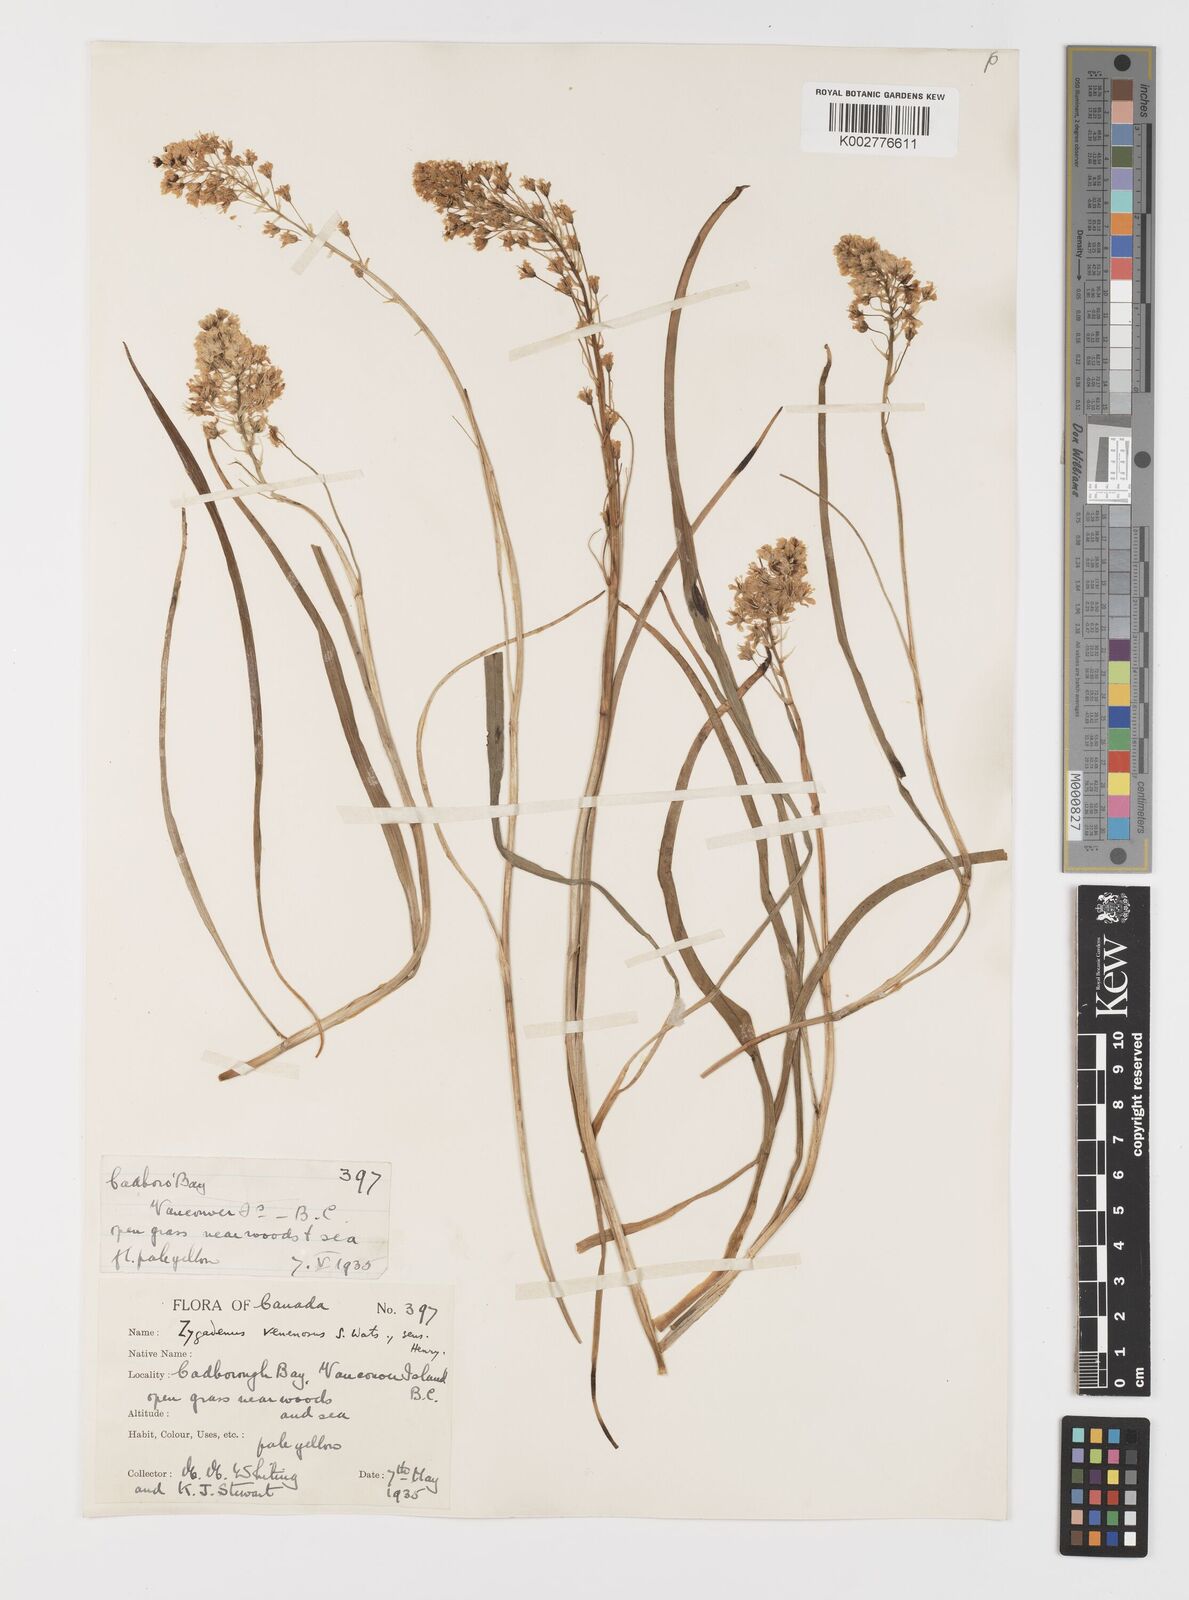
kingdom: Plantae
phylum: Tracheophyta
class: Liliopsida
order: Liliales
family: Melanthiaceae
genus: Toxicoscordion
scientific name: Toxicoscordion venenosum
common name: Meadow death camas
